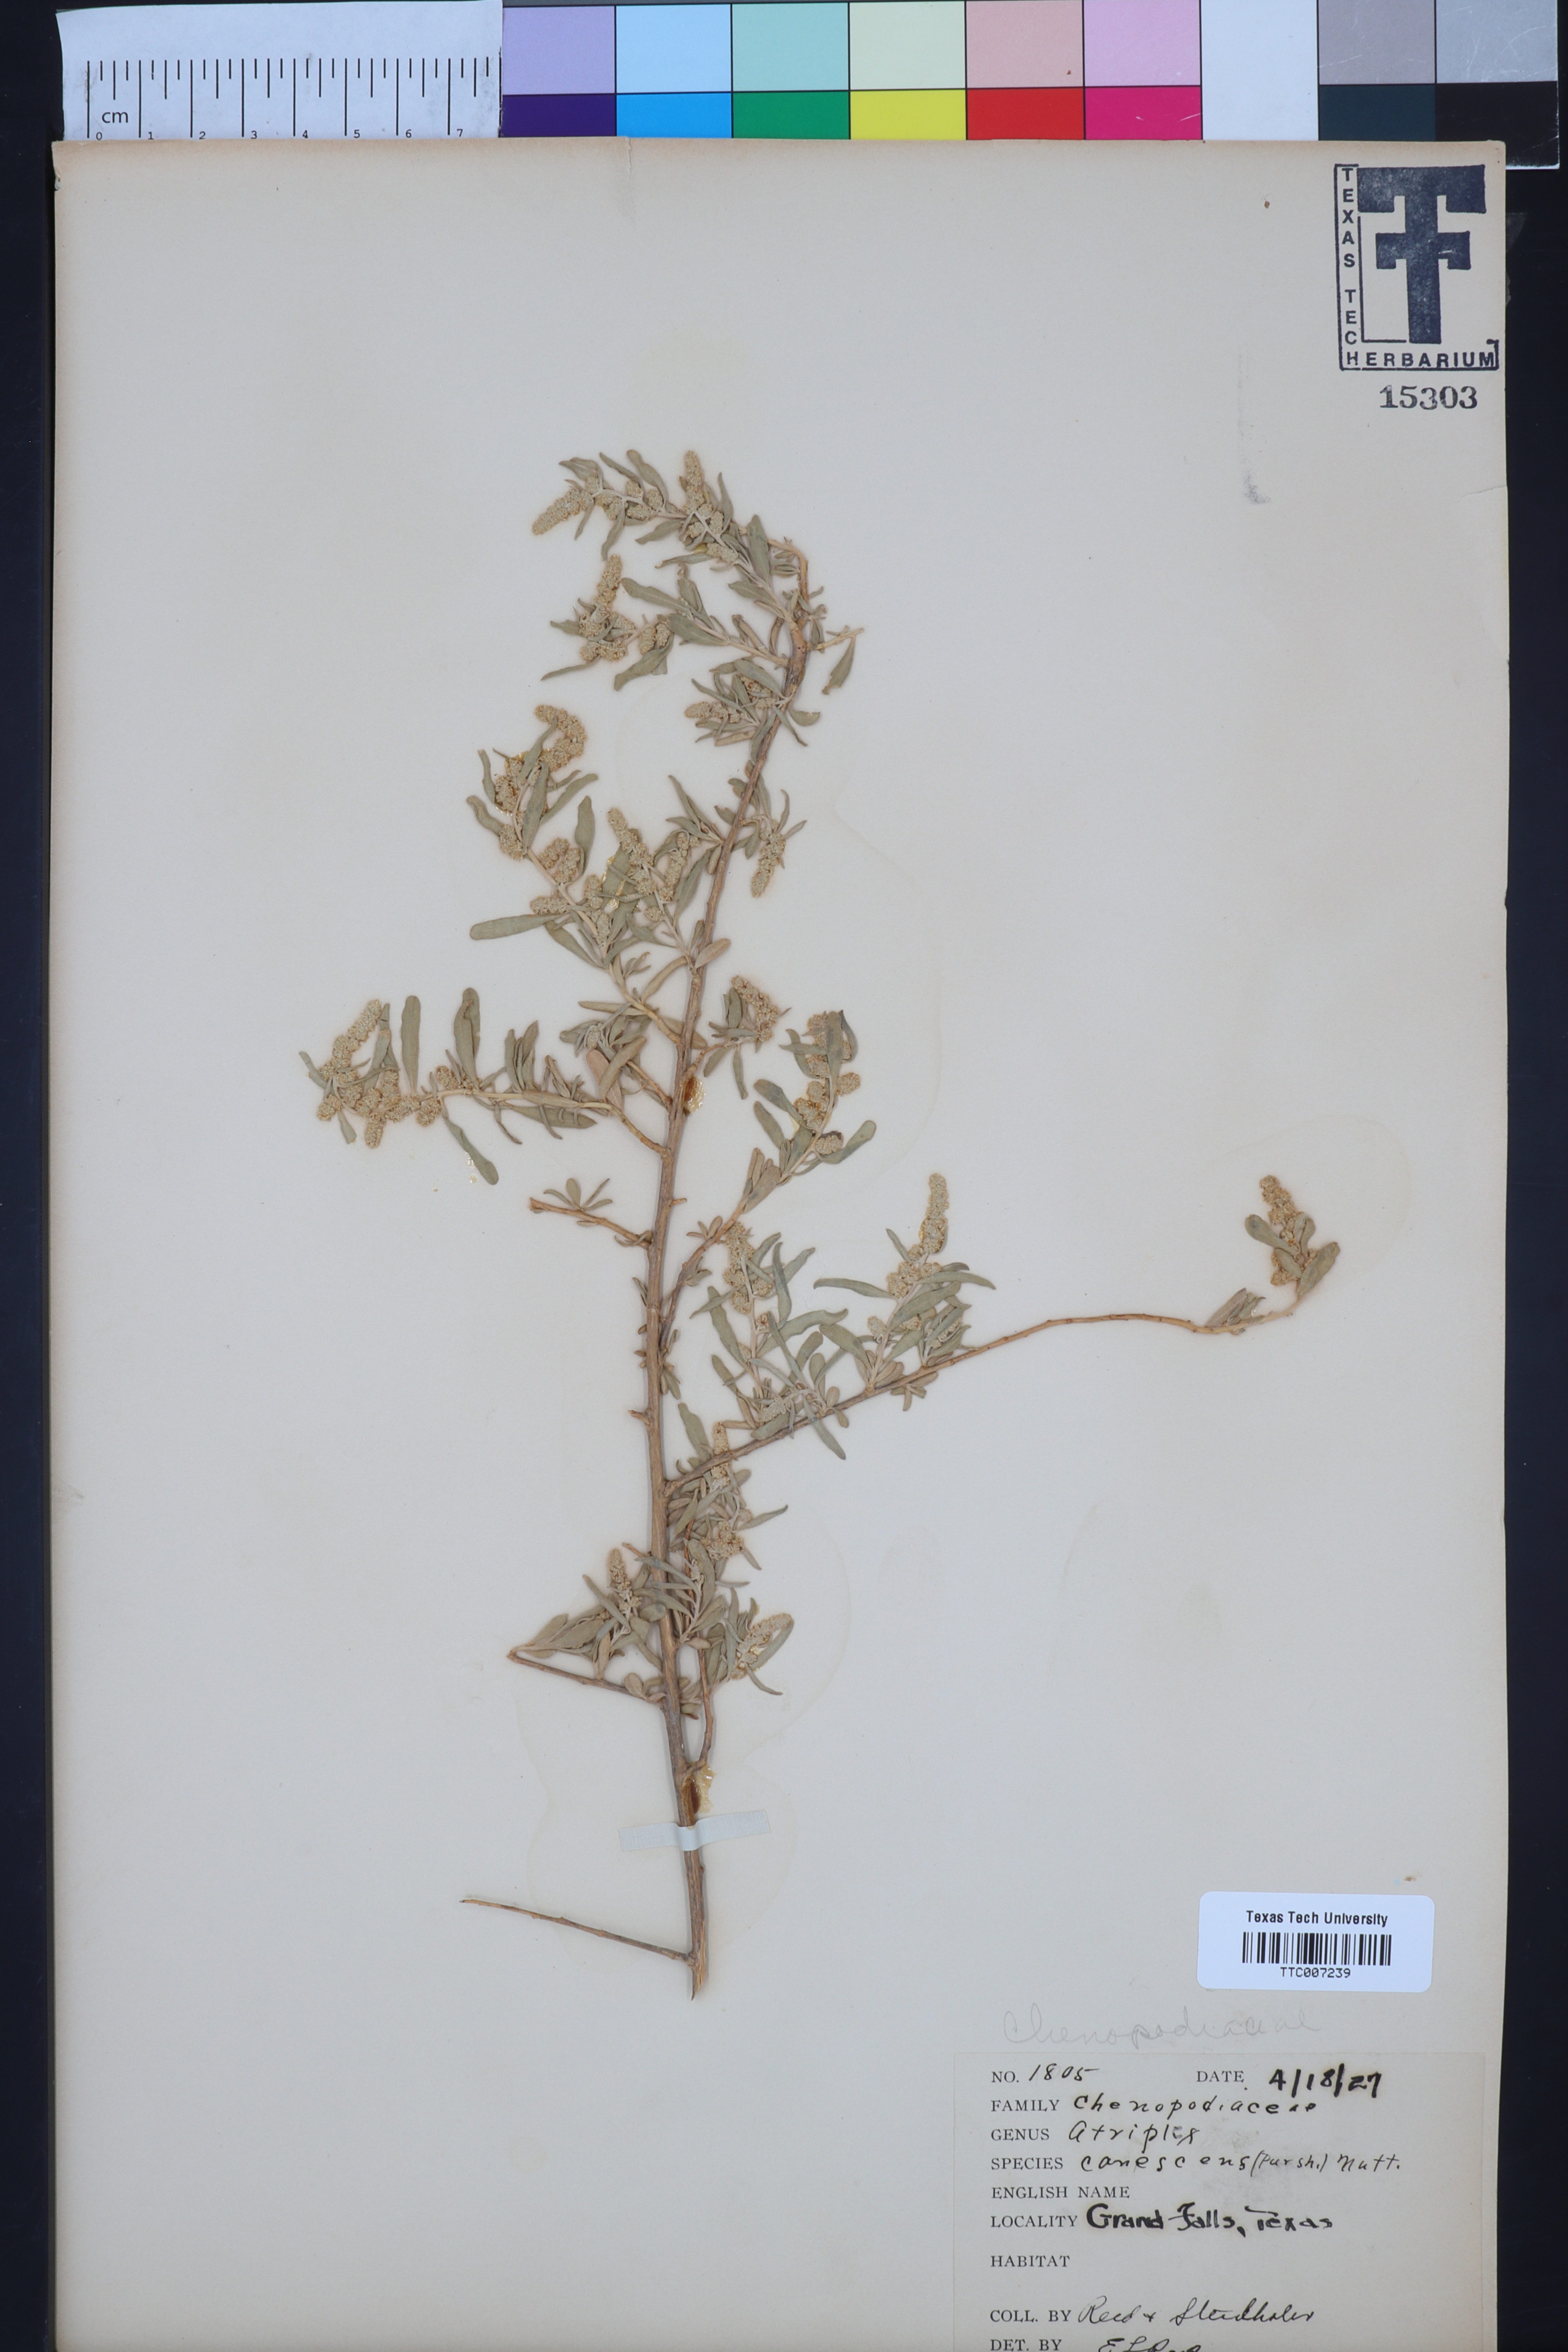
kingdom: Plantae
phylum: Tracheophyta
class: Magnoliopsida
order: Caryophyllales
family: Amaranthaceae
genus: Atriplex
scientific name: Atriplex canescens
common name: Four-wing saltbush
